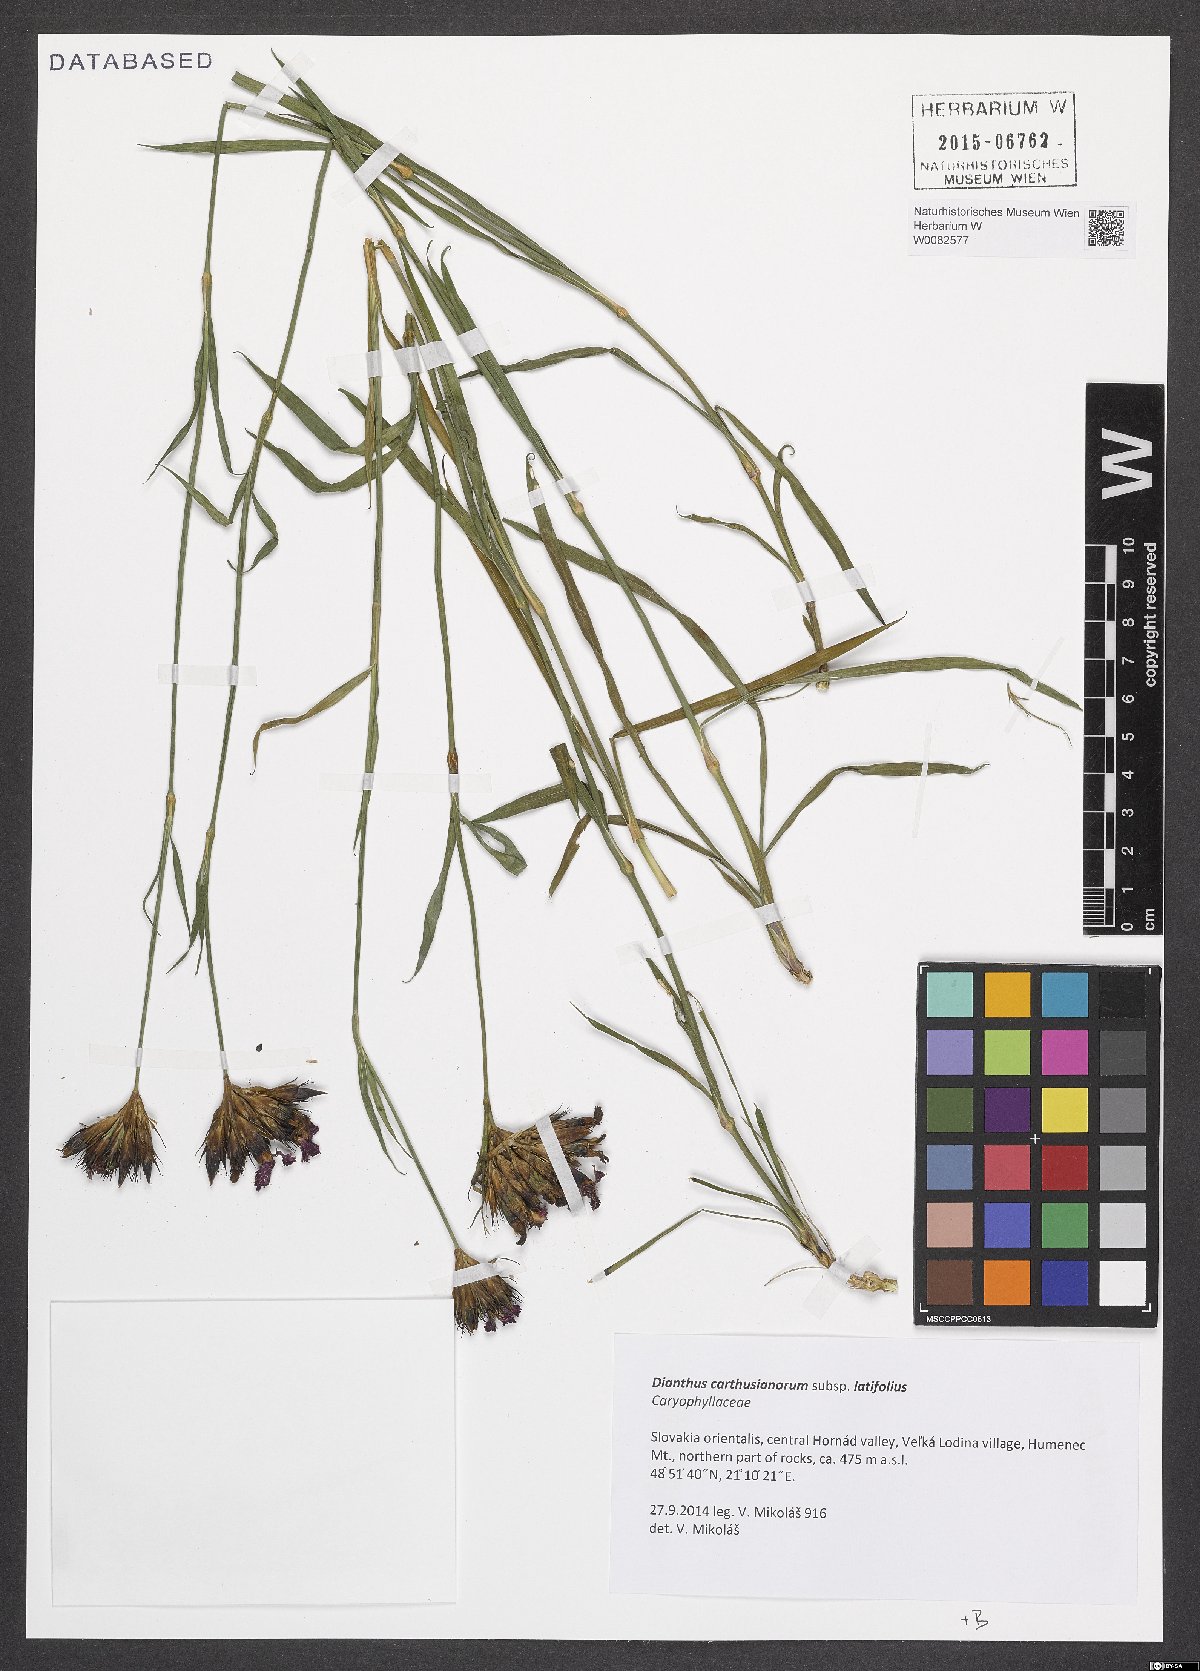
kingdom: Plantae
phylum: Tracheophyta
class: Magnoliopsida
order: Caryophyllales
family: Caryophyllaceae
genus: Dianthus
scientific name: Dianthus carthusianorum
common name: Carthusian pink
